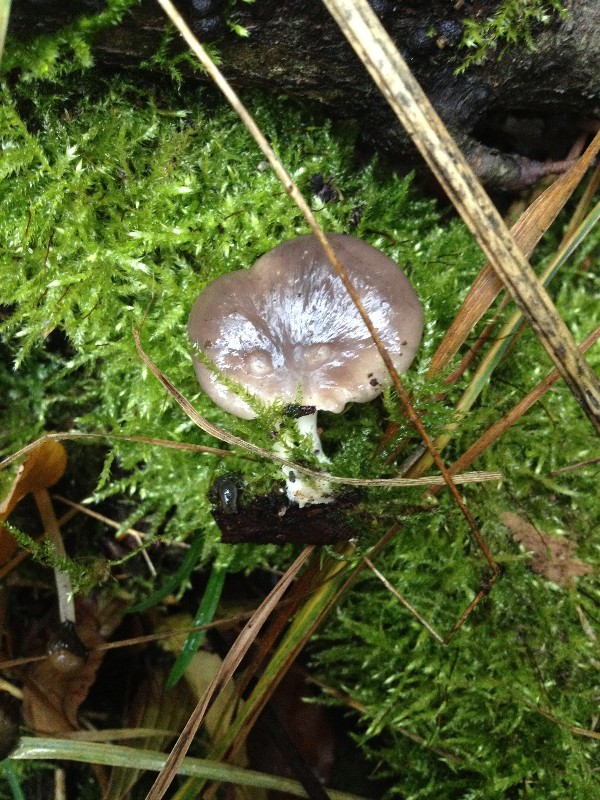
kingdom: Fungi
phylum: Basidiomycota
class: Agaricomycetes
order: Agaricales
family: Pleurotaceae
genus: Pleurotus
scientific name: Pleurotus ostreatus
